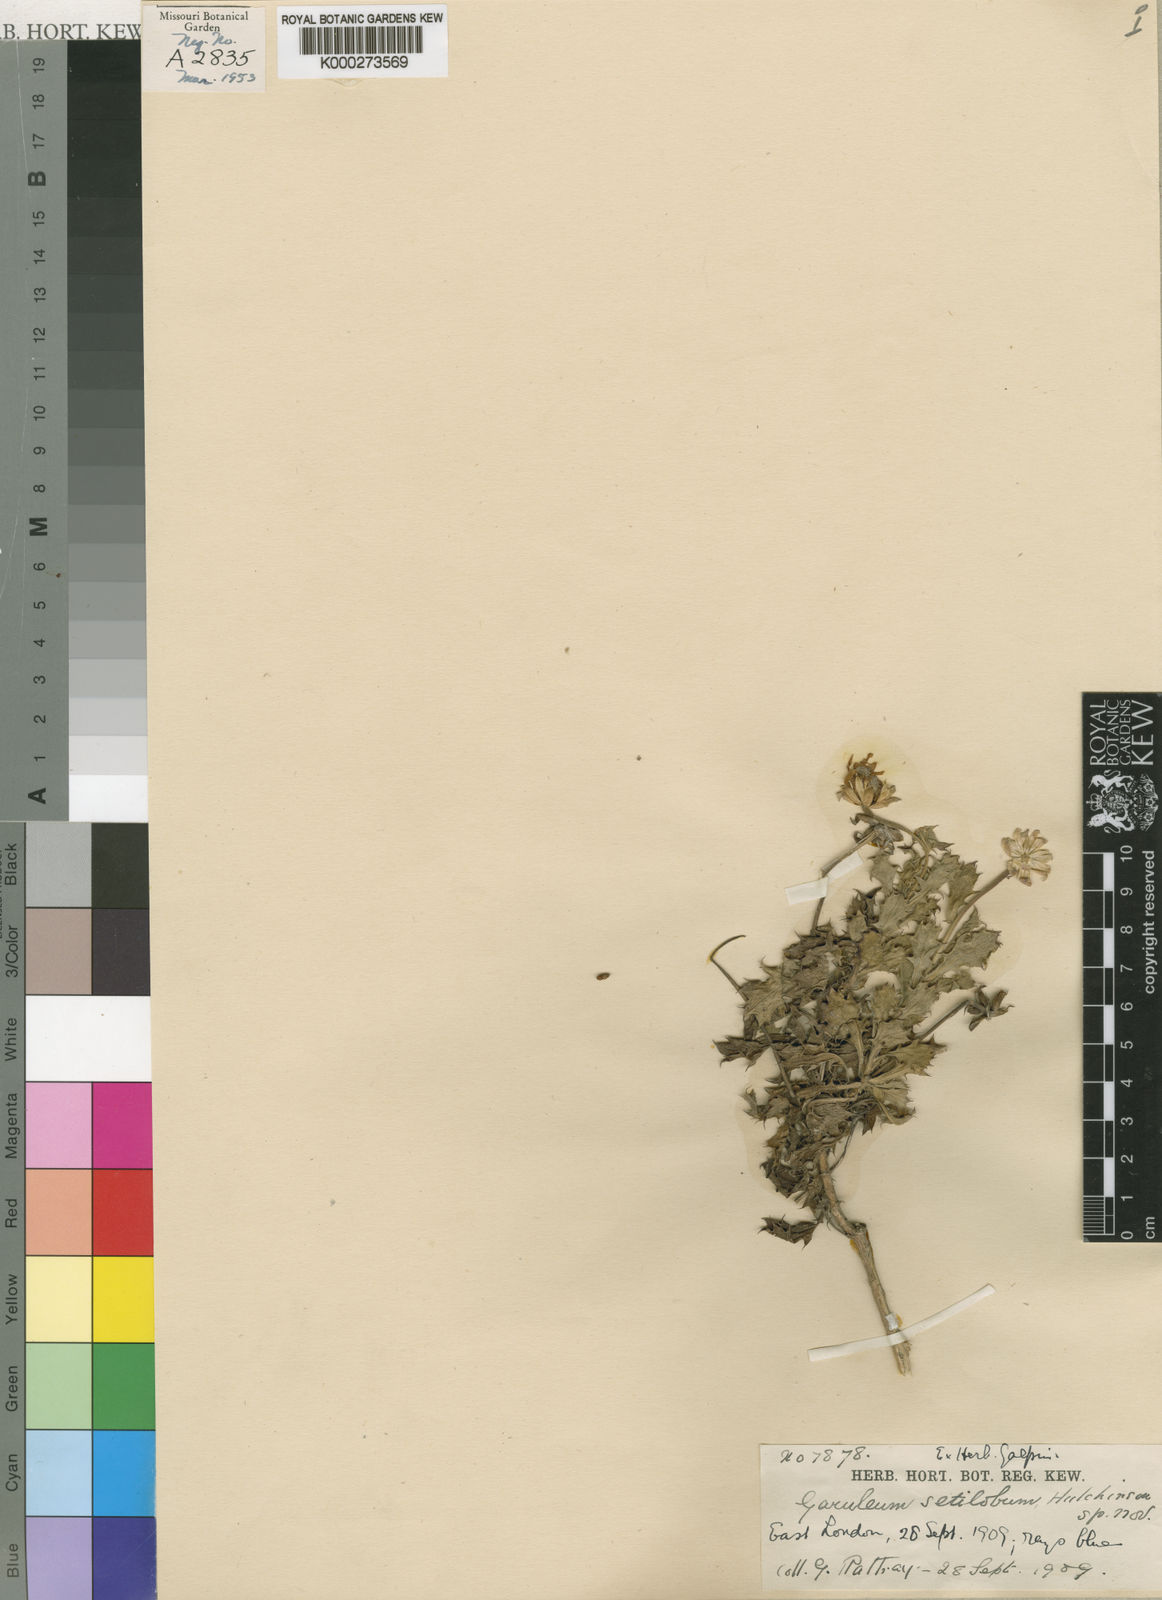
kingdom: Plantae
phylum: Tracheophyta
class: Magnoliopsida
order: Asterales
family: Asteraceae
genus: Garuleum
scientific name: Garuleum
